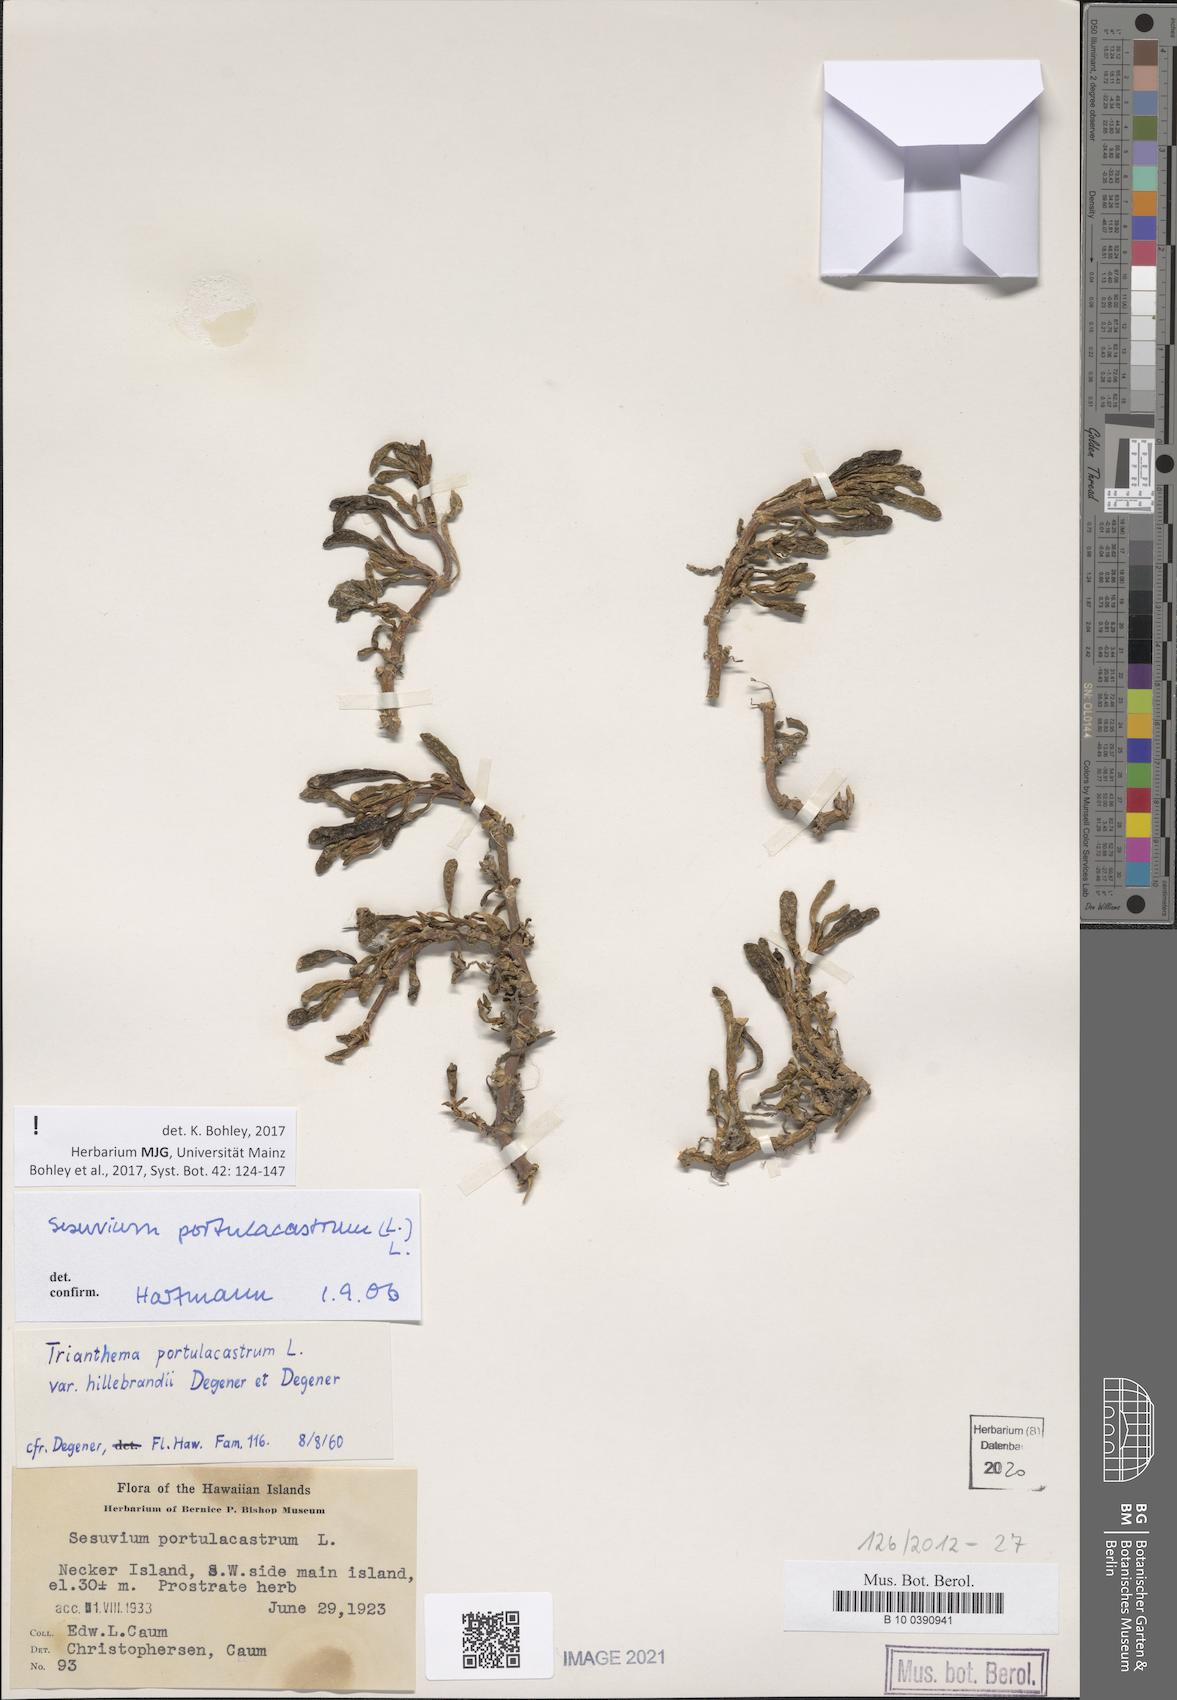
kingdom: Plantae
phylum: Tracheophyta
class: Magnoliopsida
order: Caryophyllales
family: Aizoaceae
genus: Sesuvium
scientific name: Sesuvium portulacastrum
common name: Sea-purslane
